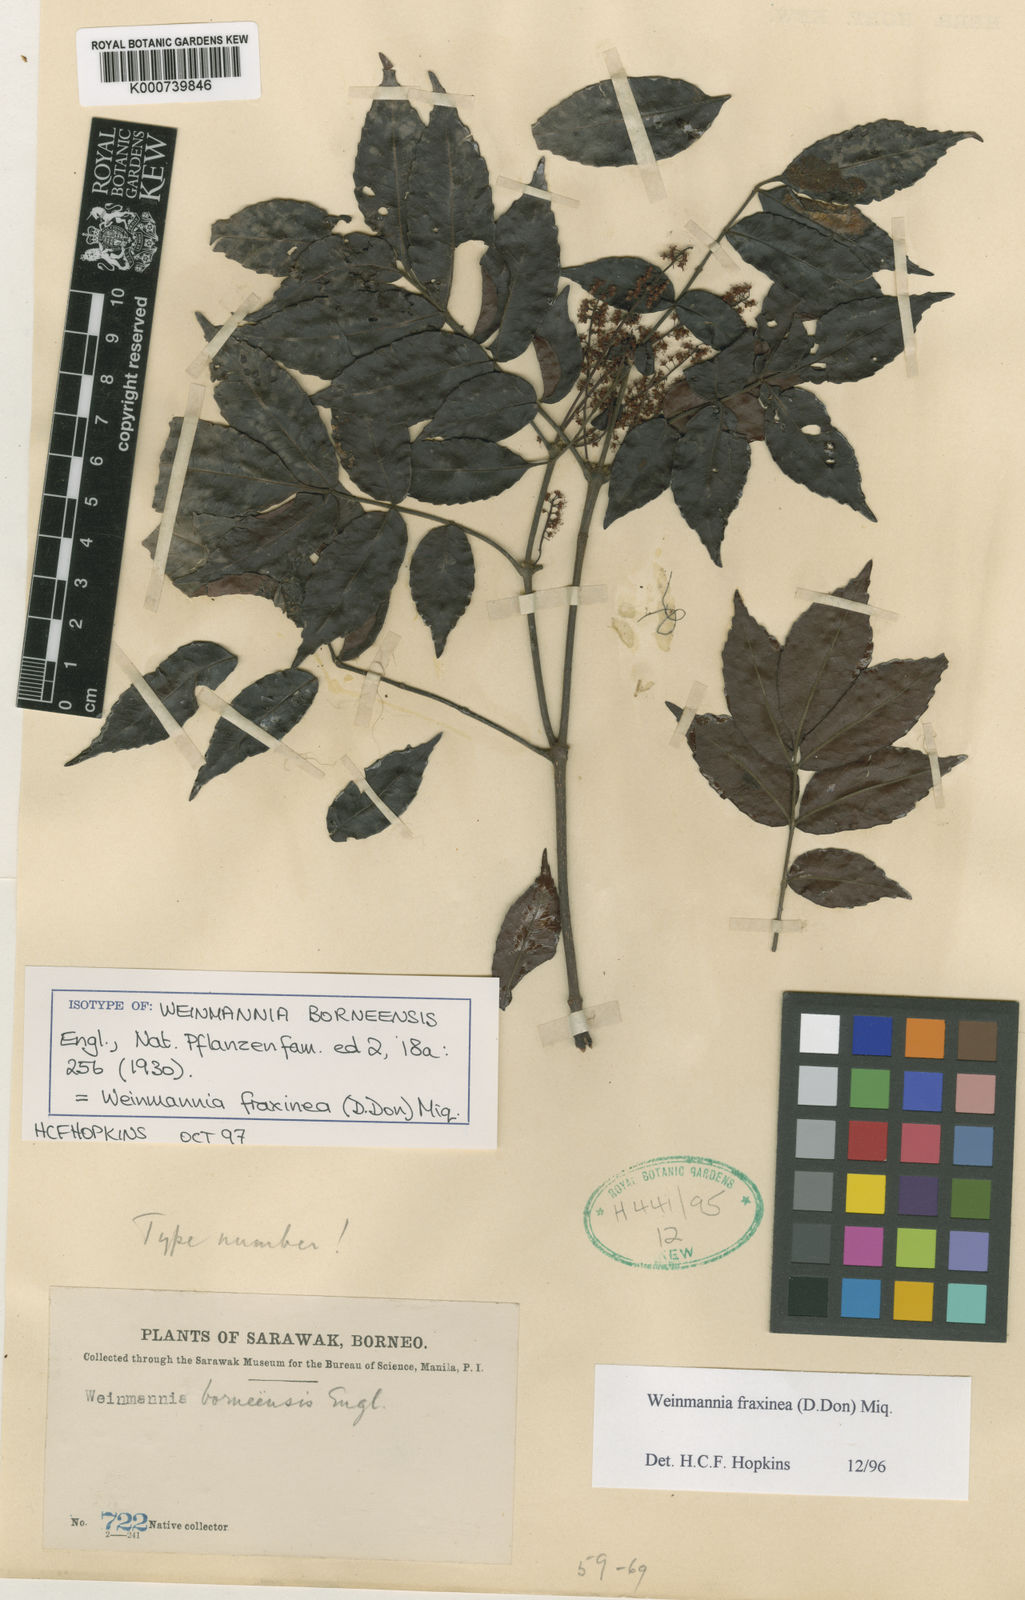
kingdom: Plantae
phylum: Tracheophyta
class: Magnoliopsida
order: Oxalidales
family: Cunoniaceae
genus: Pterophylla
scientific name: Pterophylla fraxinea
